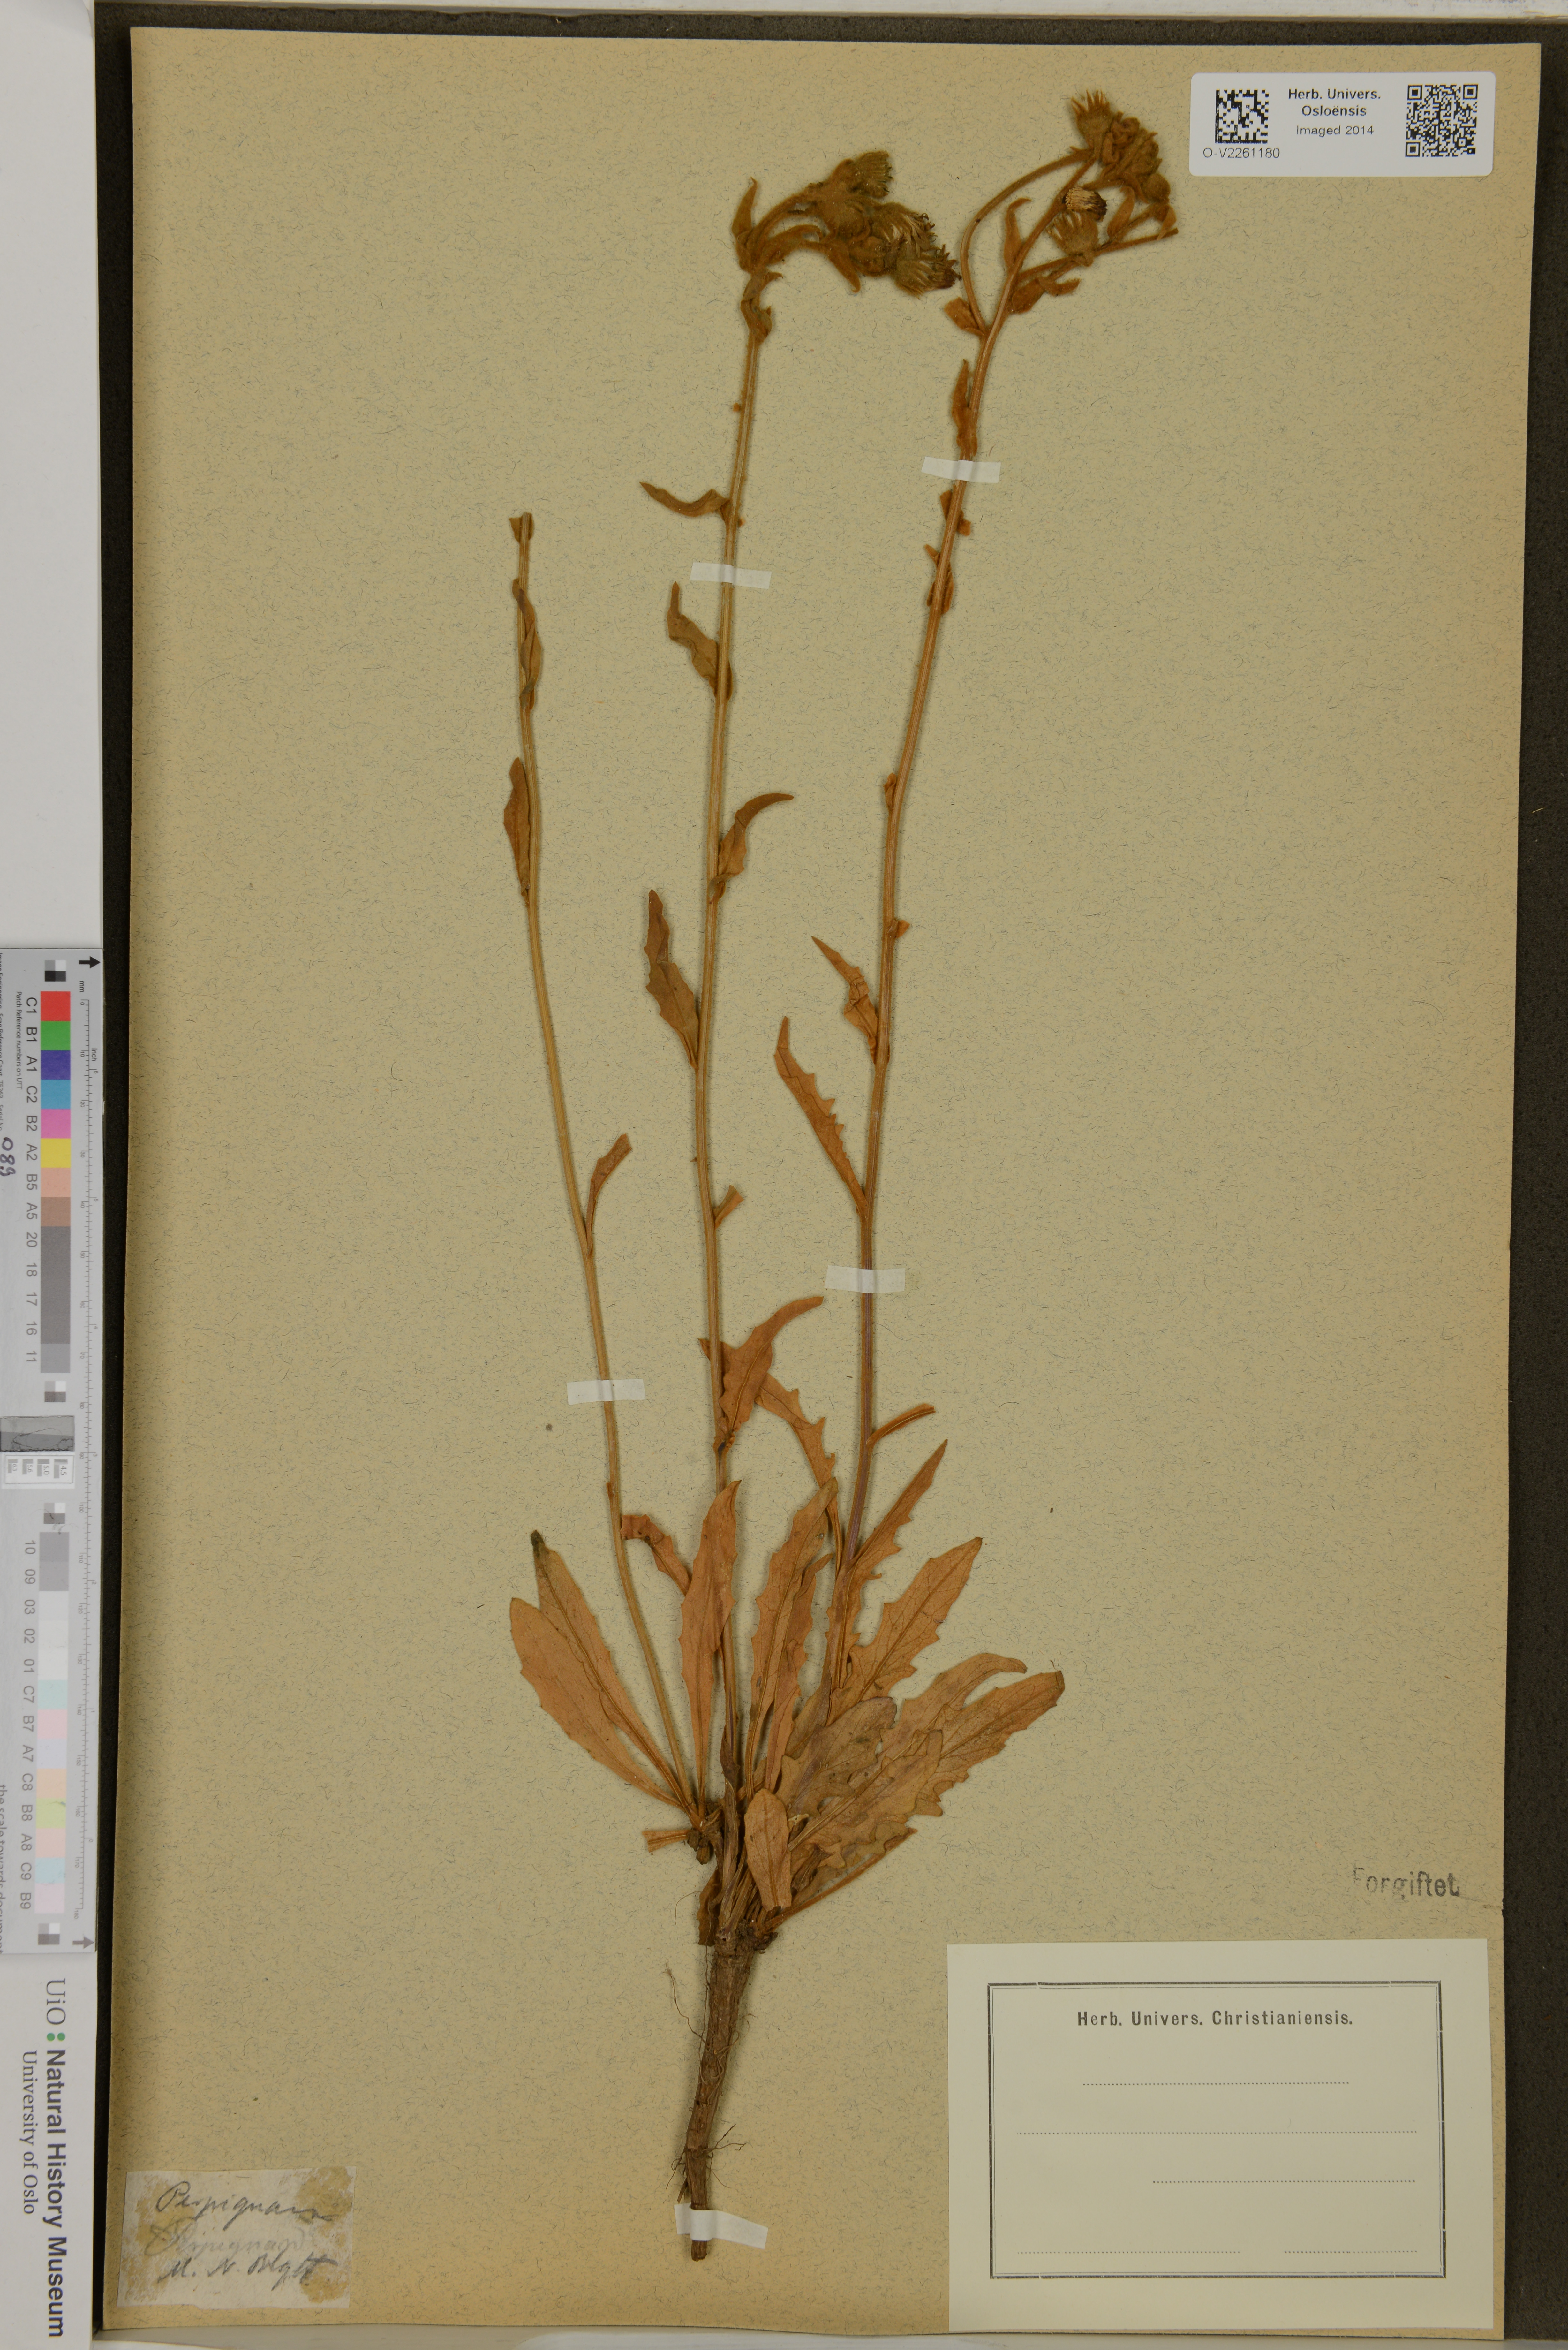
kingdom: Plantae
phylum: Tracheophyta
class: Magnoliopsida
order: Asterales
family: Asteraceae
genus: Andryala
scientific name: Andryala integrifolia
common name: Common andryala
